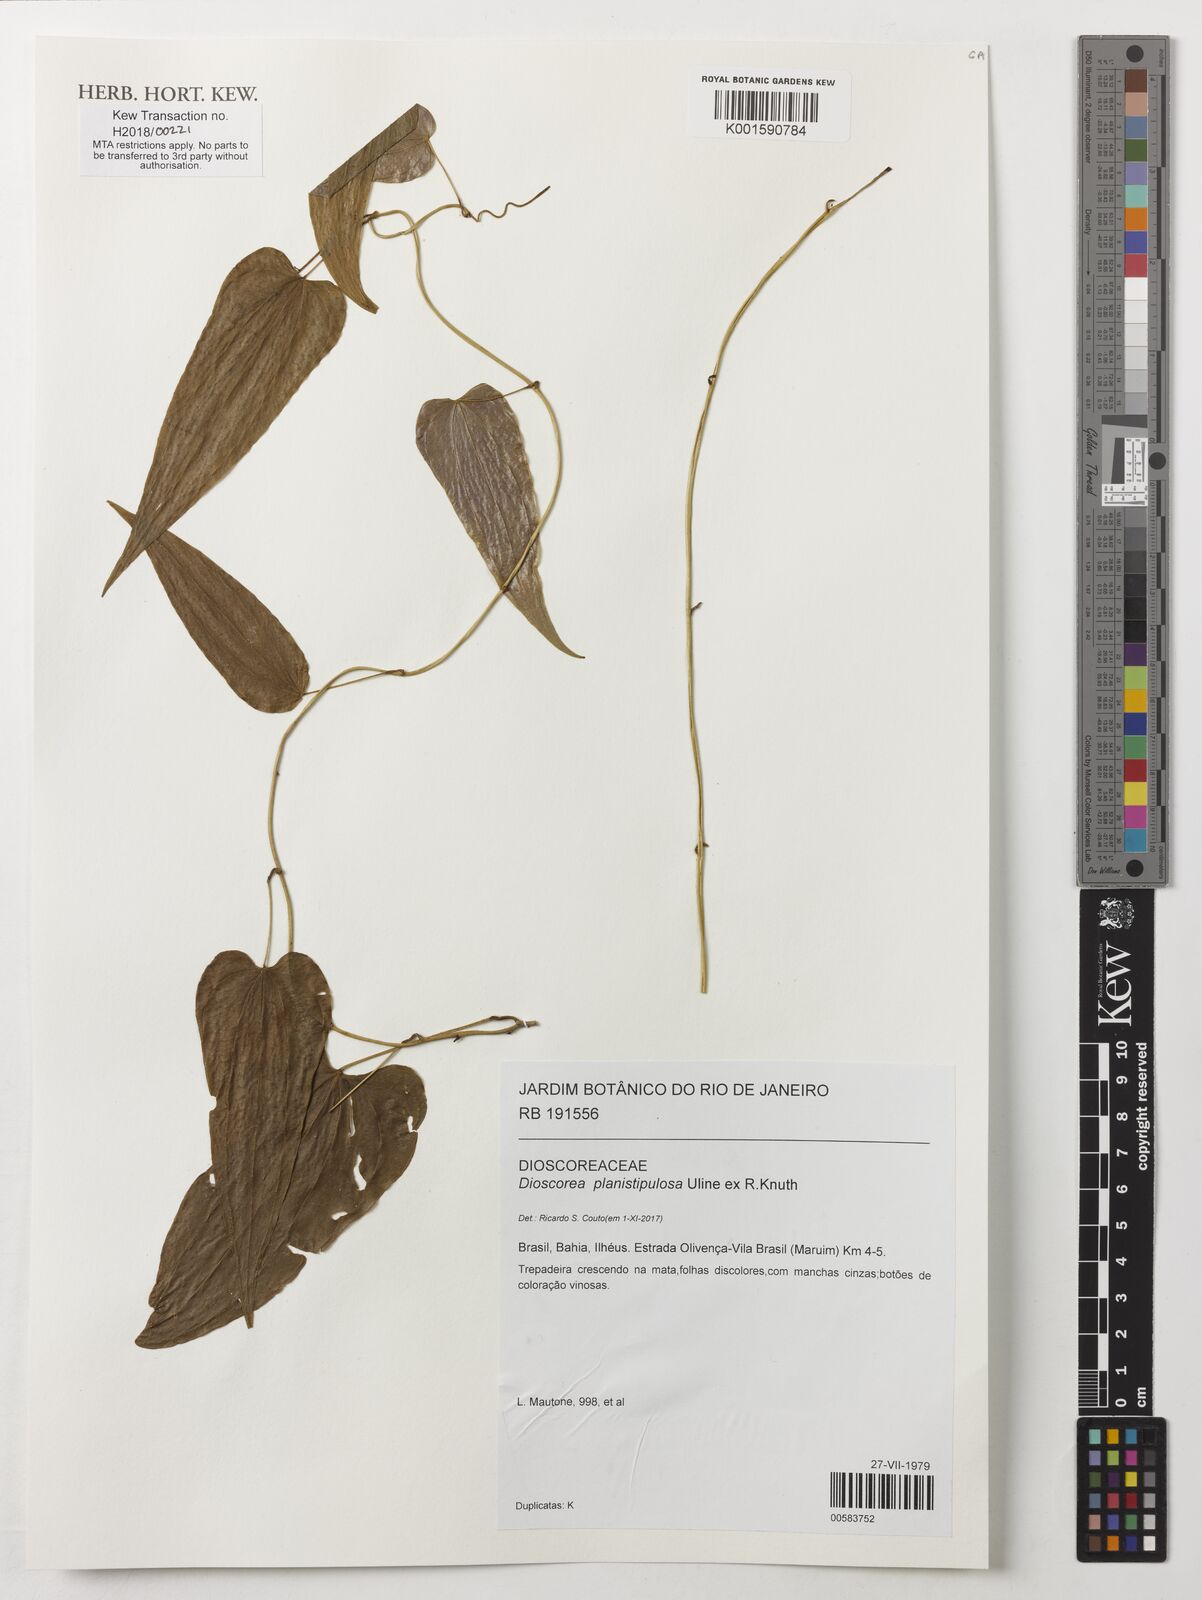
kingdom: Plantae
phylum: Tracheophyta
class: Liliopsida
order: Dioscoreales
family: Dioscoreaceae
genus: Dioscorea
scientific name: Dioscorea planistipulosa
